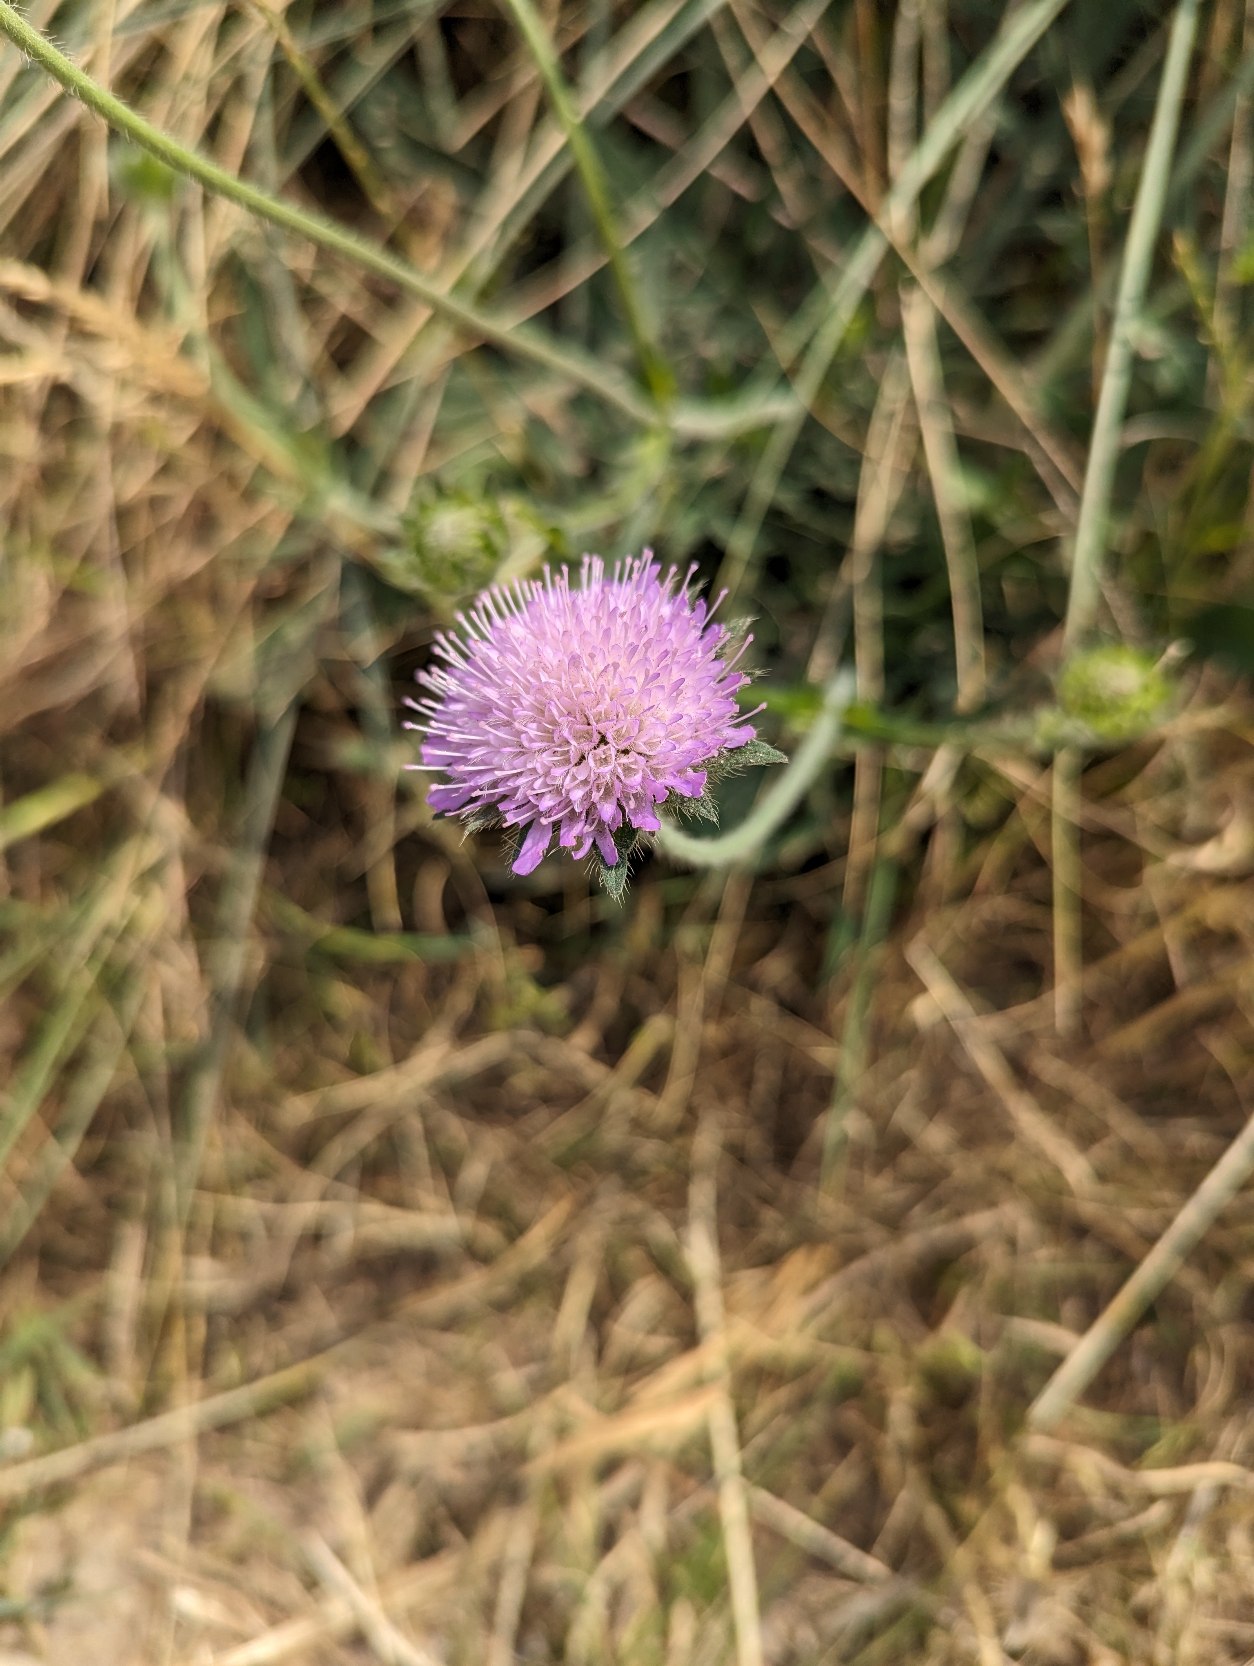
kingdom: Plantae
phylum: Tracheophyta
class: Magnoliopsida
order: Dipsacales
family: Caprifoliaceae
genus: Knautia
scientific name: Knautia arvensis
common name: Blåhat
